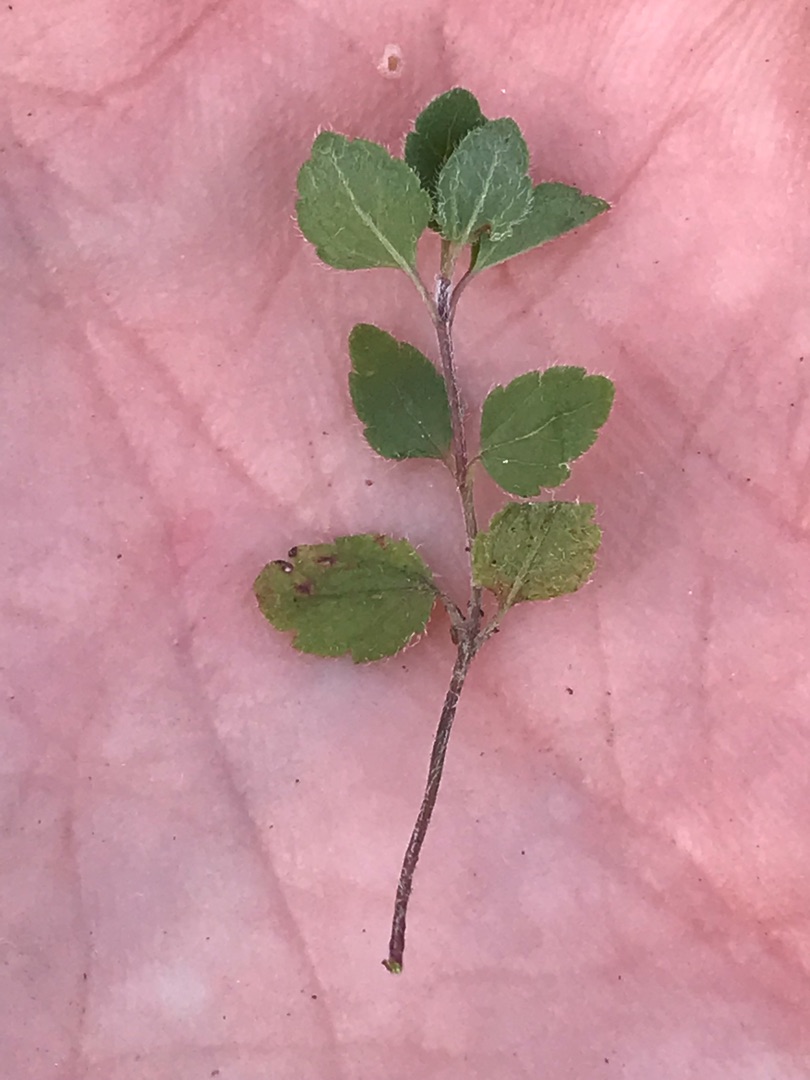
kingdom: Plantae
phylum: Tracheophyta
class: Magnoliopsida
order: Lamiales
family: Plantaginaceae
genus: Veronica
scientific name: Veronica montana
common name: Bjerg-ærenpris
